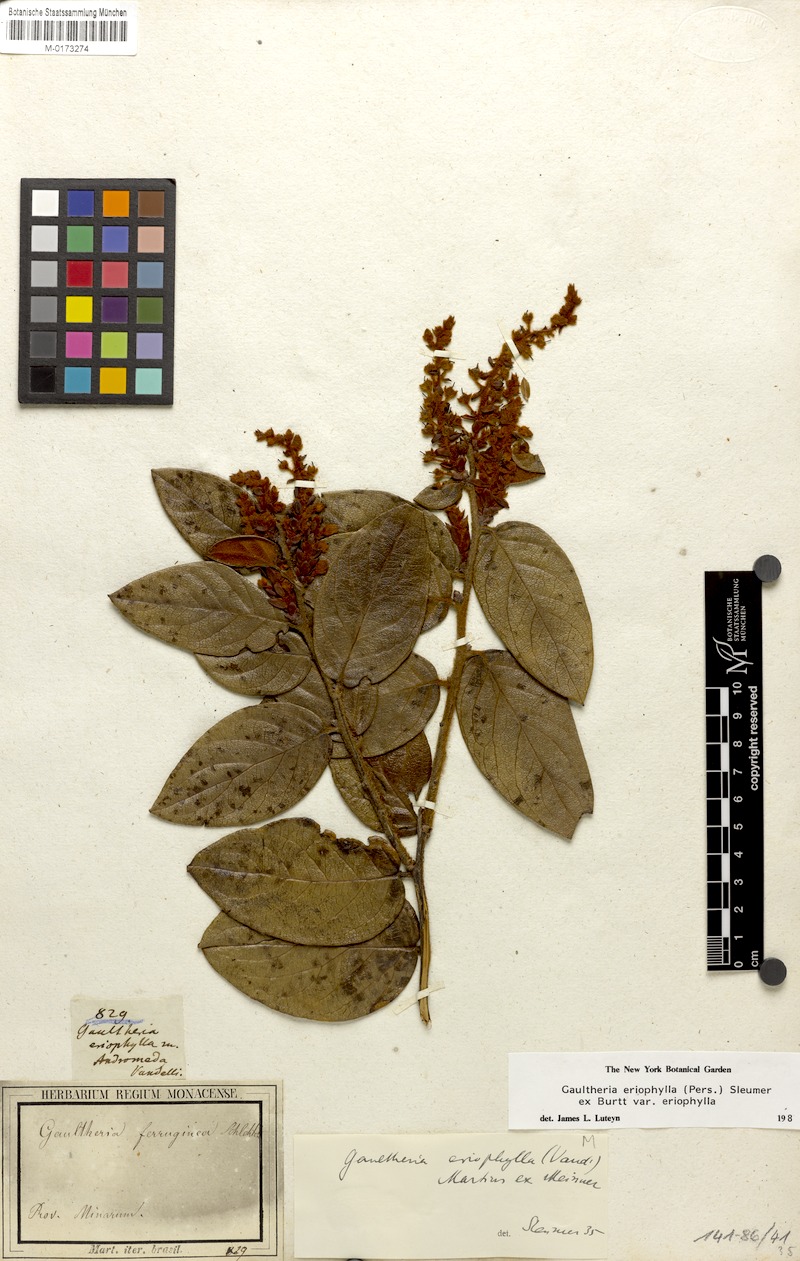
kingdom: Plantae
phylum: Tracheophyta
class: Magnoliopsida
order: Ericales
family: Ericaceae
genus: Gaultheria
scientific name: Gaultheria eriophylla
